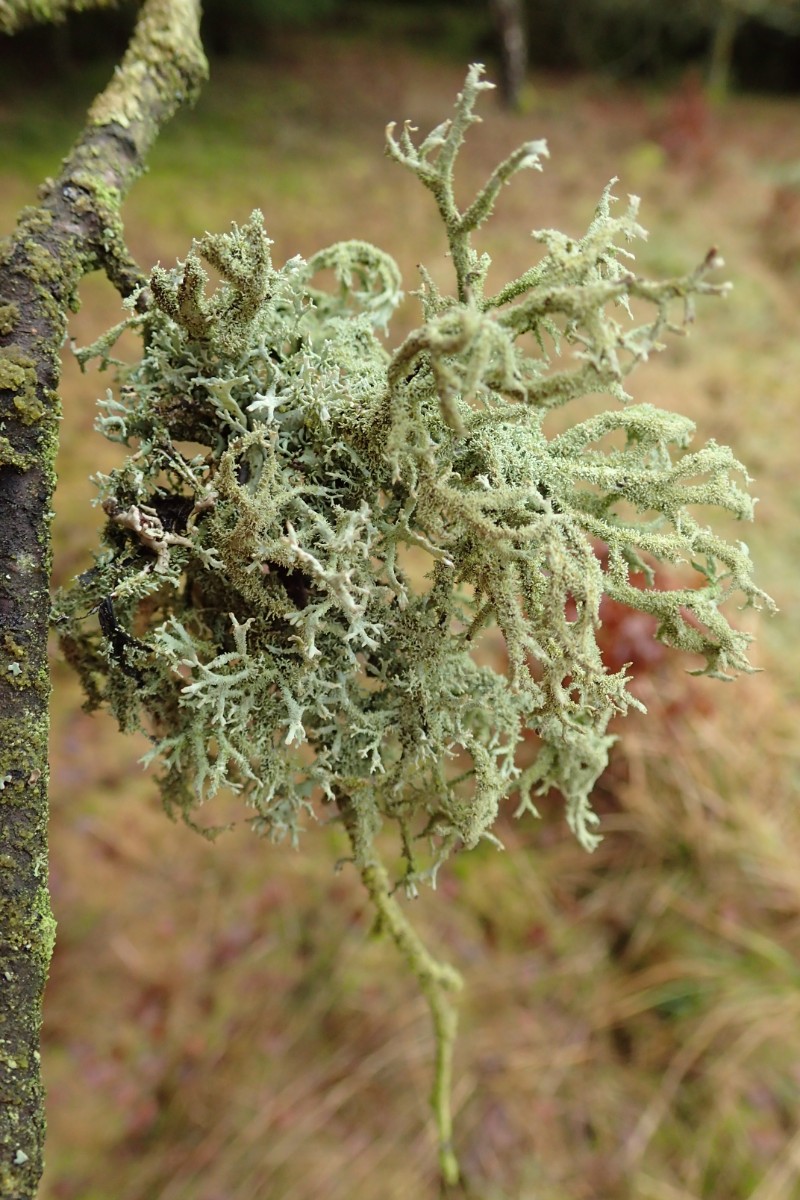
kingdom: Fungi
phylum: Ascomycota
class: Lecanoromycetes
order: Lecanorales
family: Parmeliaceae
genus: Pseudevernia
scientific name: Pseudevernia furfuracea
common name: grå fyrrelav
